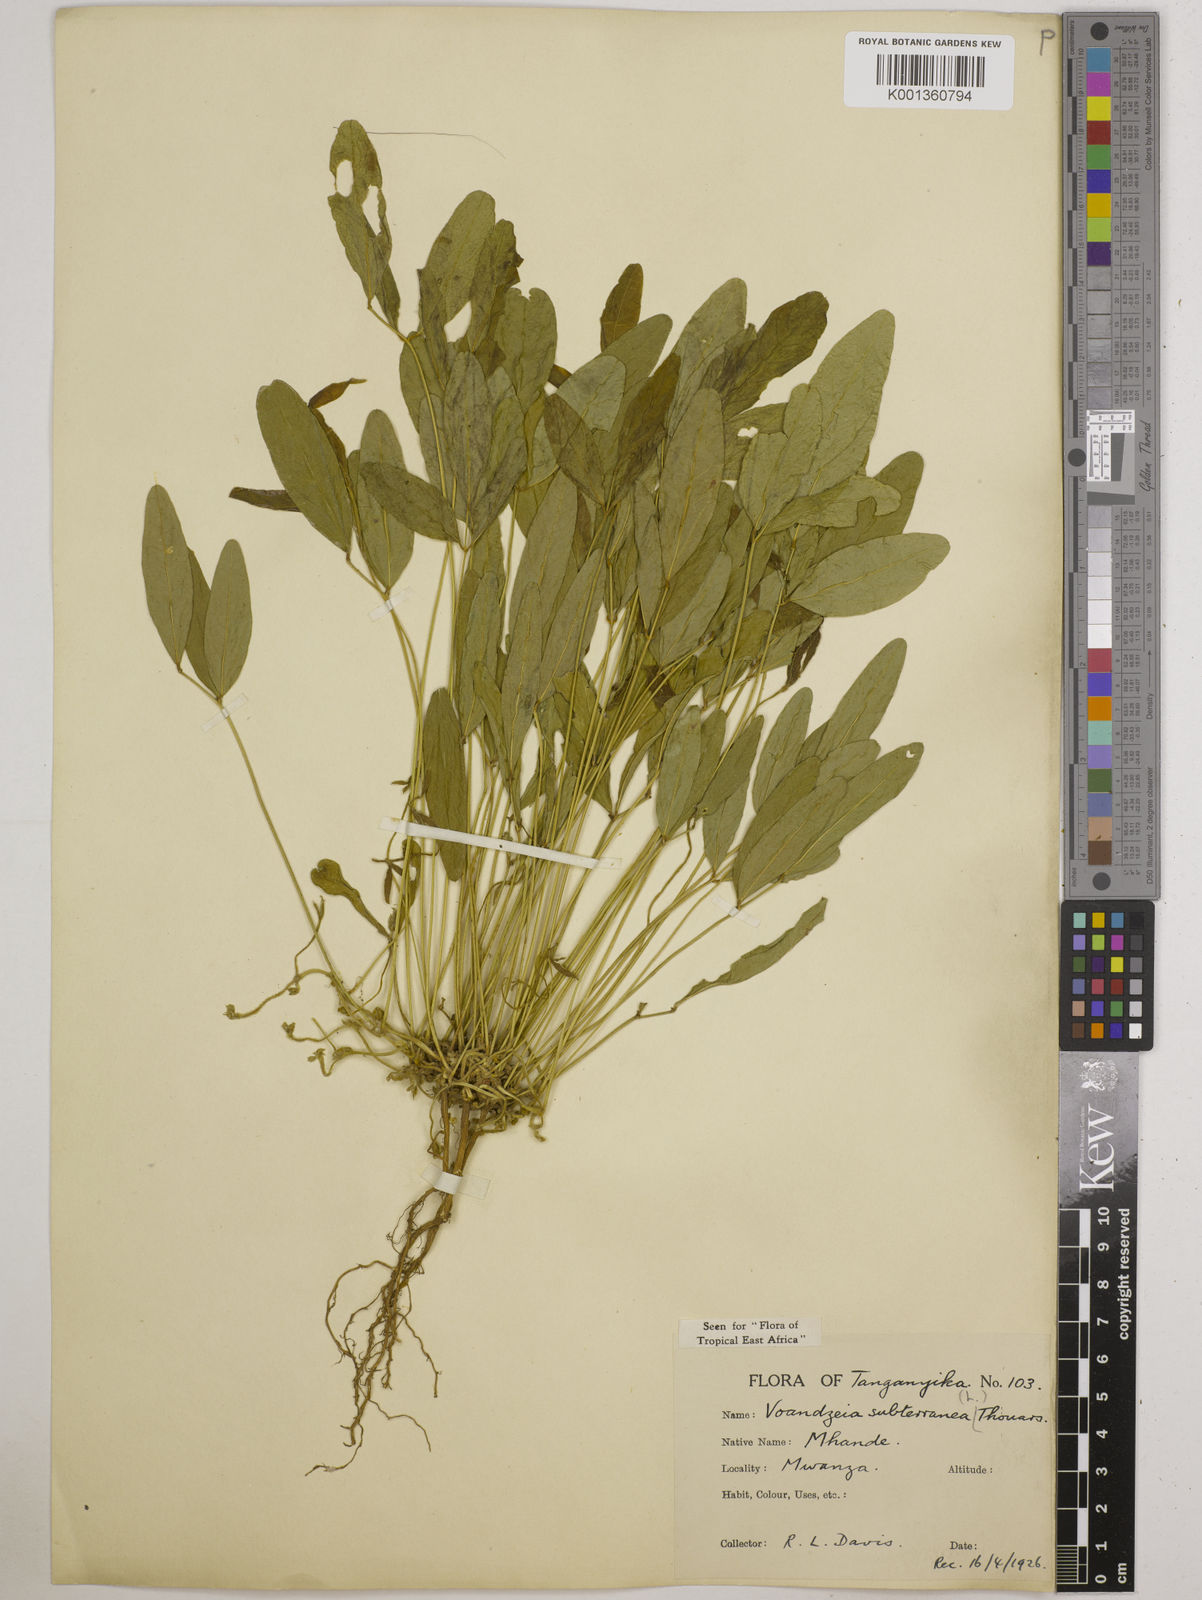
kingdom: Plantae
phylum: Tracheophyta
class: Magnoliopsida
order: Fabales
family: Fabaceae
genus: Vigna
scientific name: Vigna subterranea
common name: Bambara groundnut
